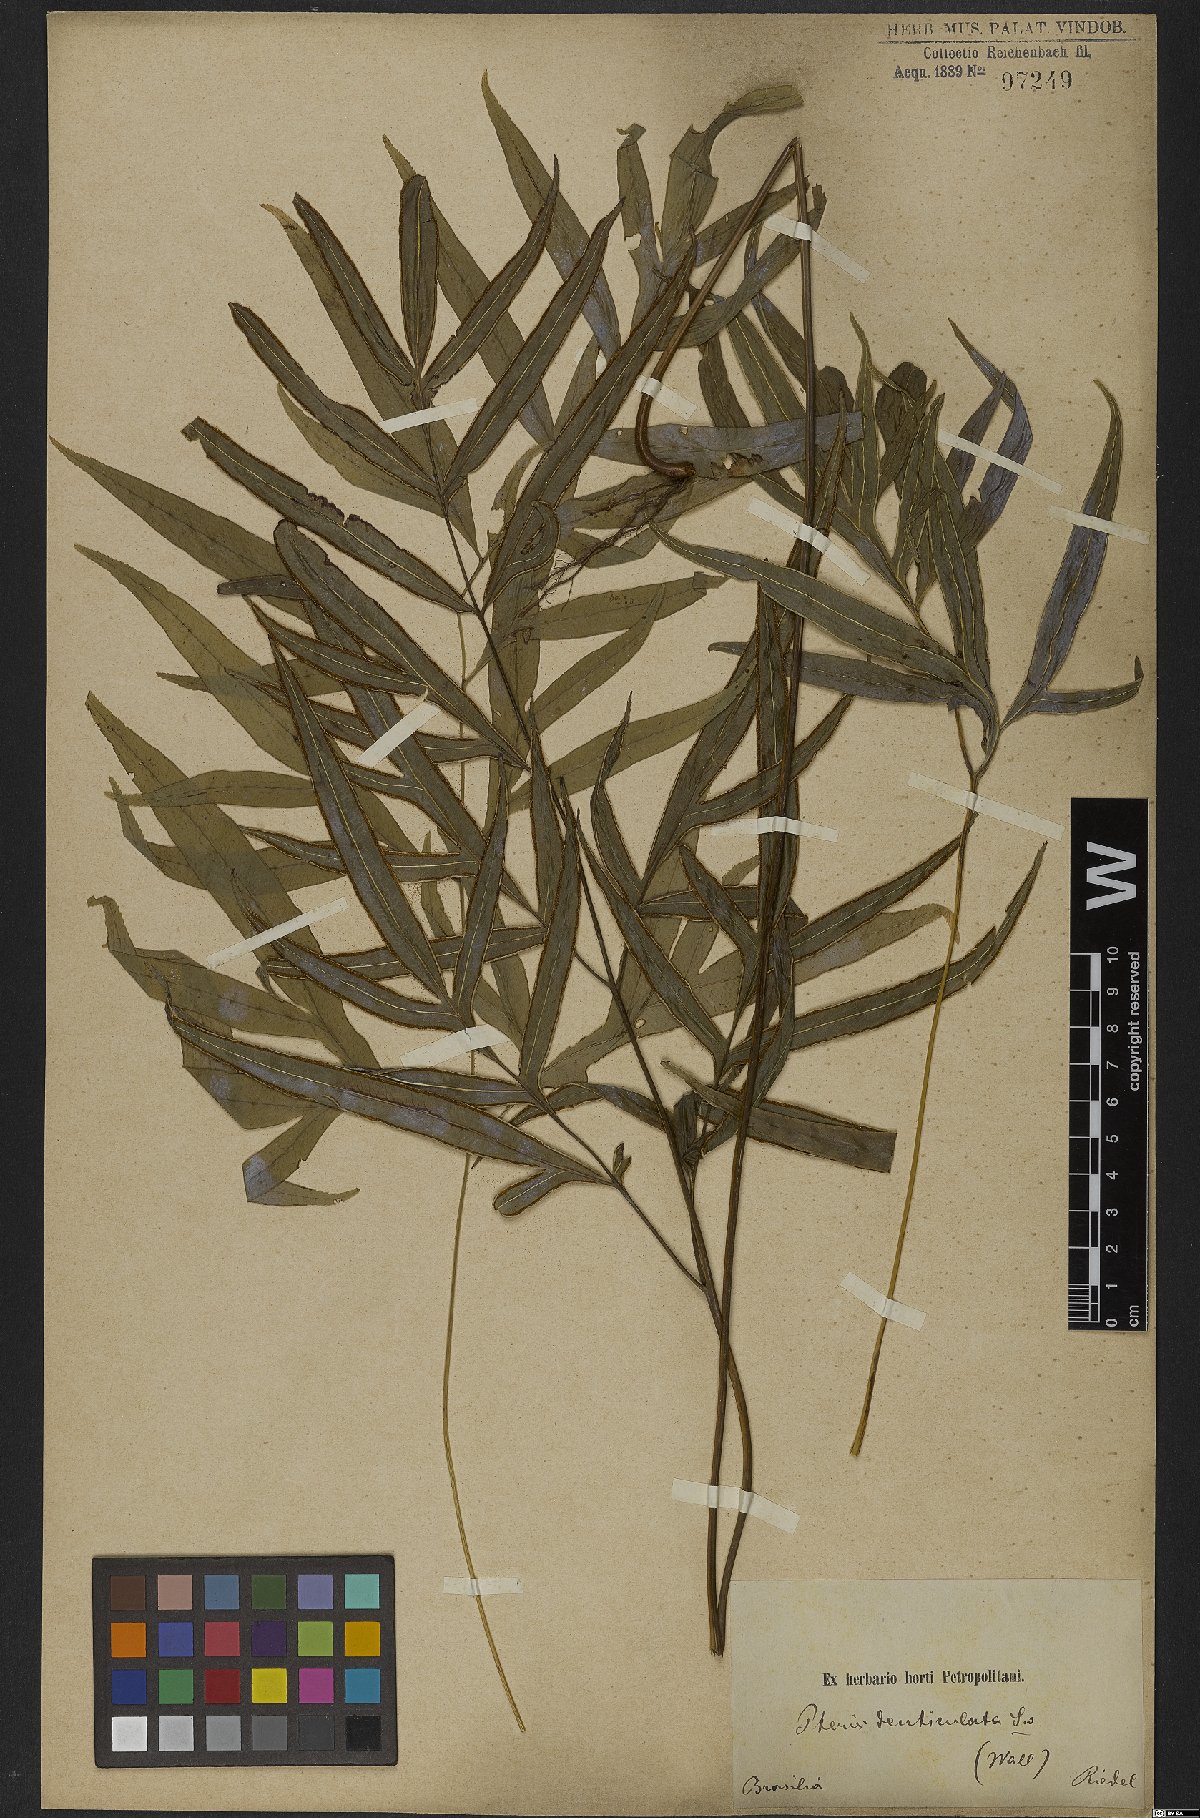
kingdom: Plantae
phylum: Tracheophyta
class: Polypodiopsida
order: Polypodiales
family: Pteridaceae
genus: Pteris
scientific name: Pteris denticulata
